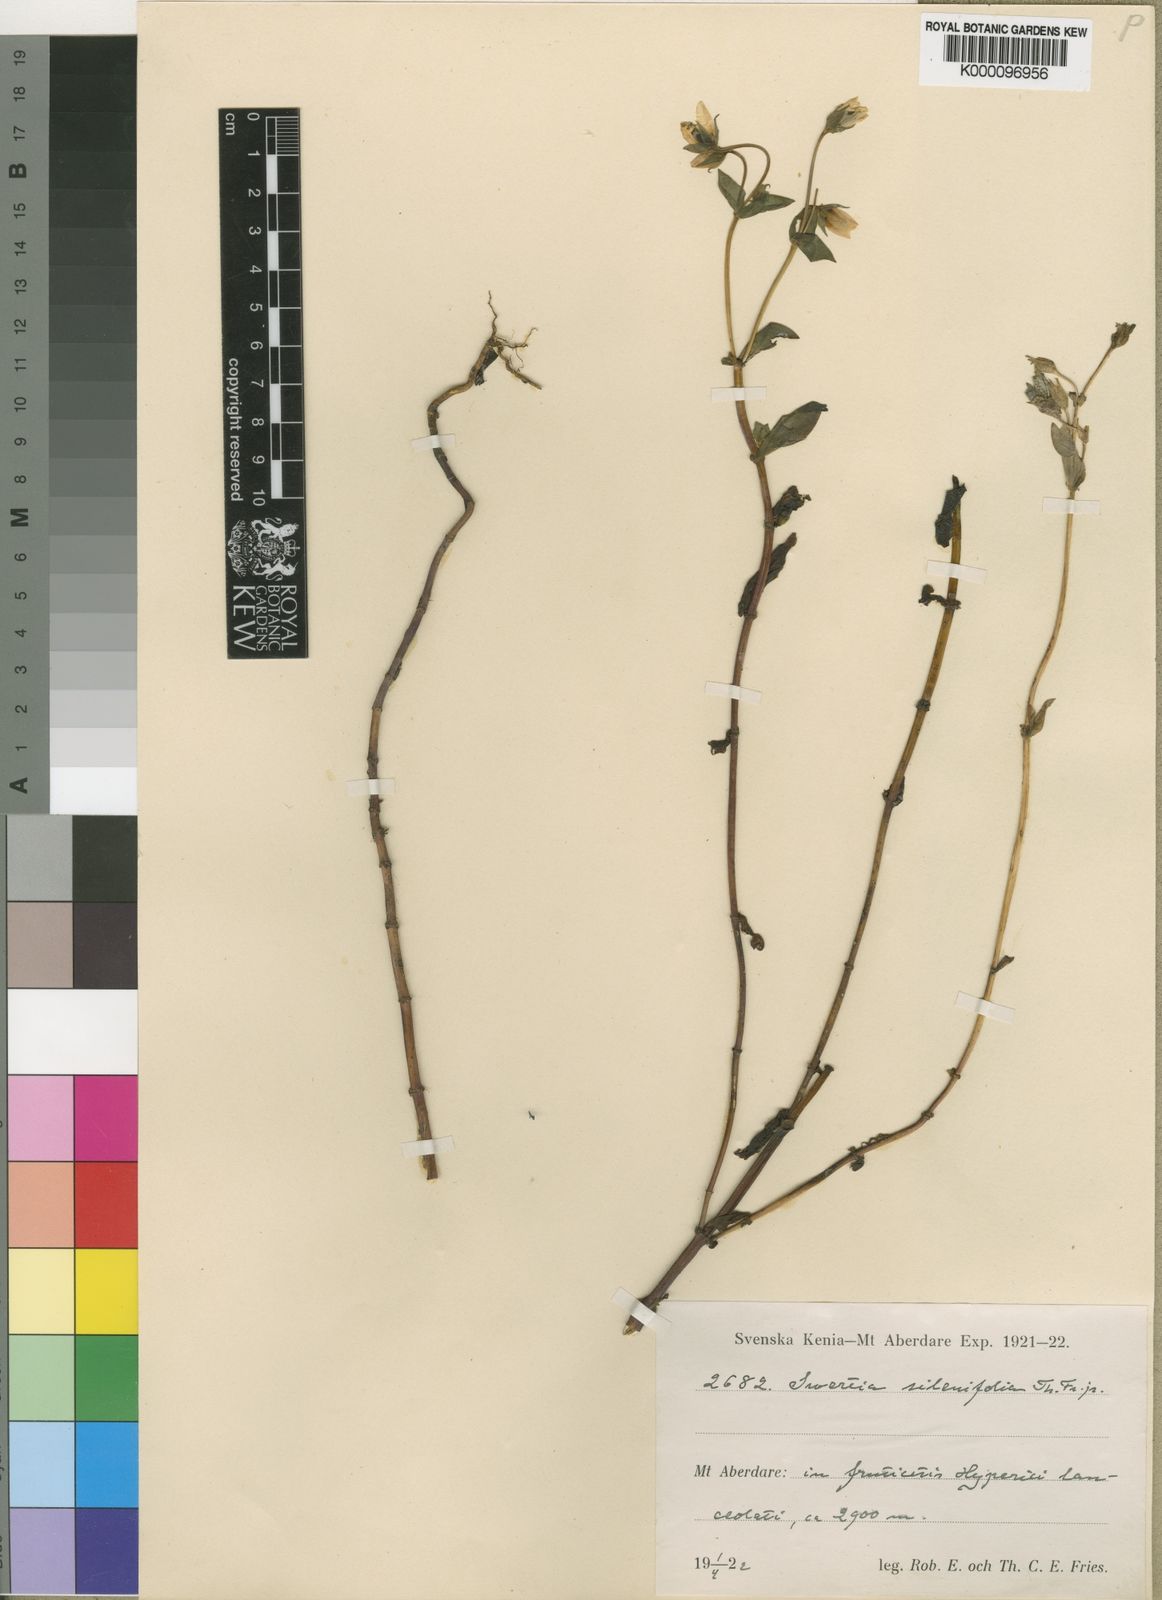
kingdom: Plantae
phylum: Tracheophyta
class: Magnoliopsida
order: Gentianales
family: Gentianaceae
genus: Swertia
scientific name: Swertia kilimandscharica
